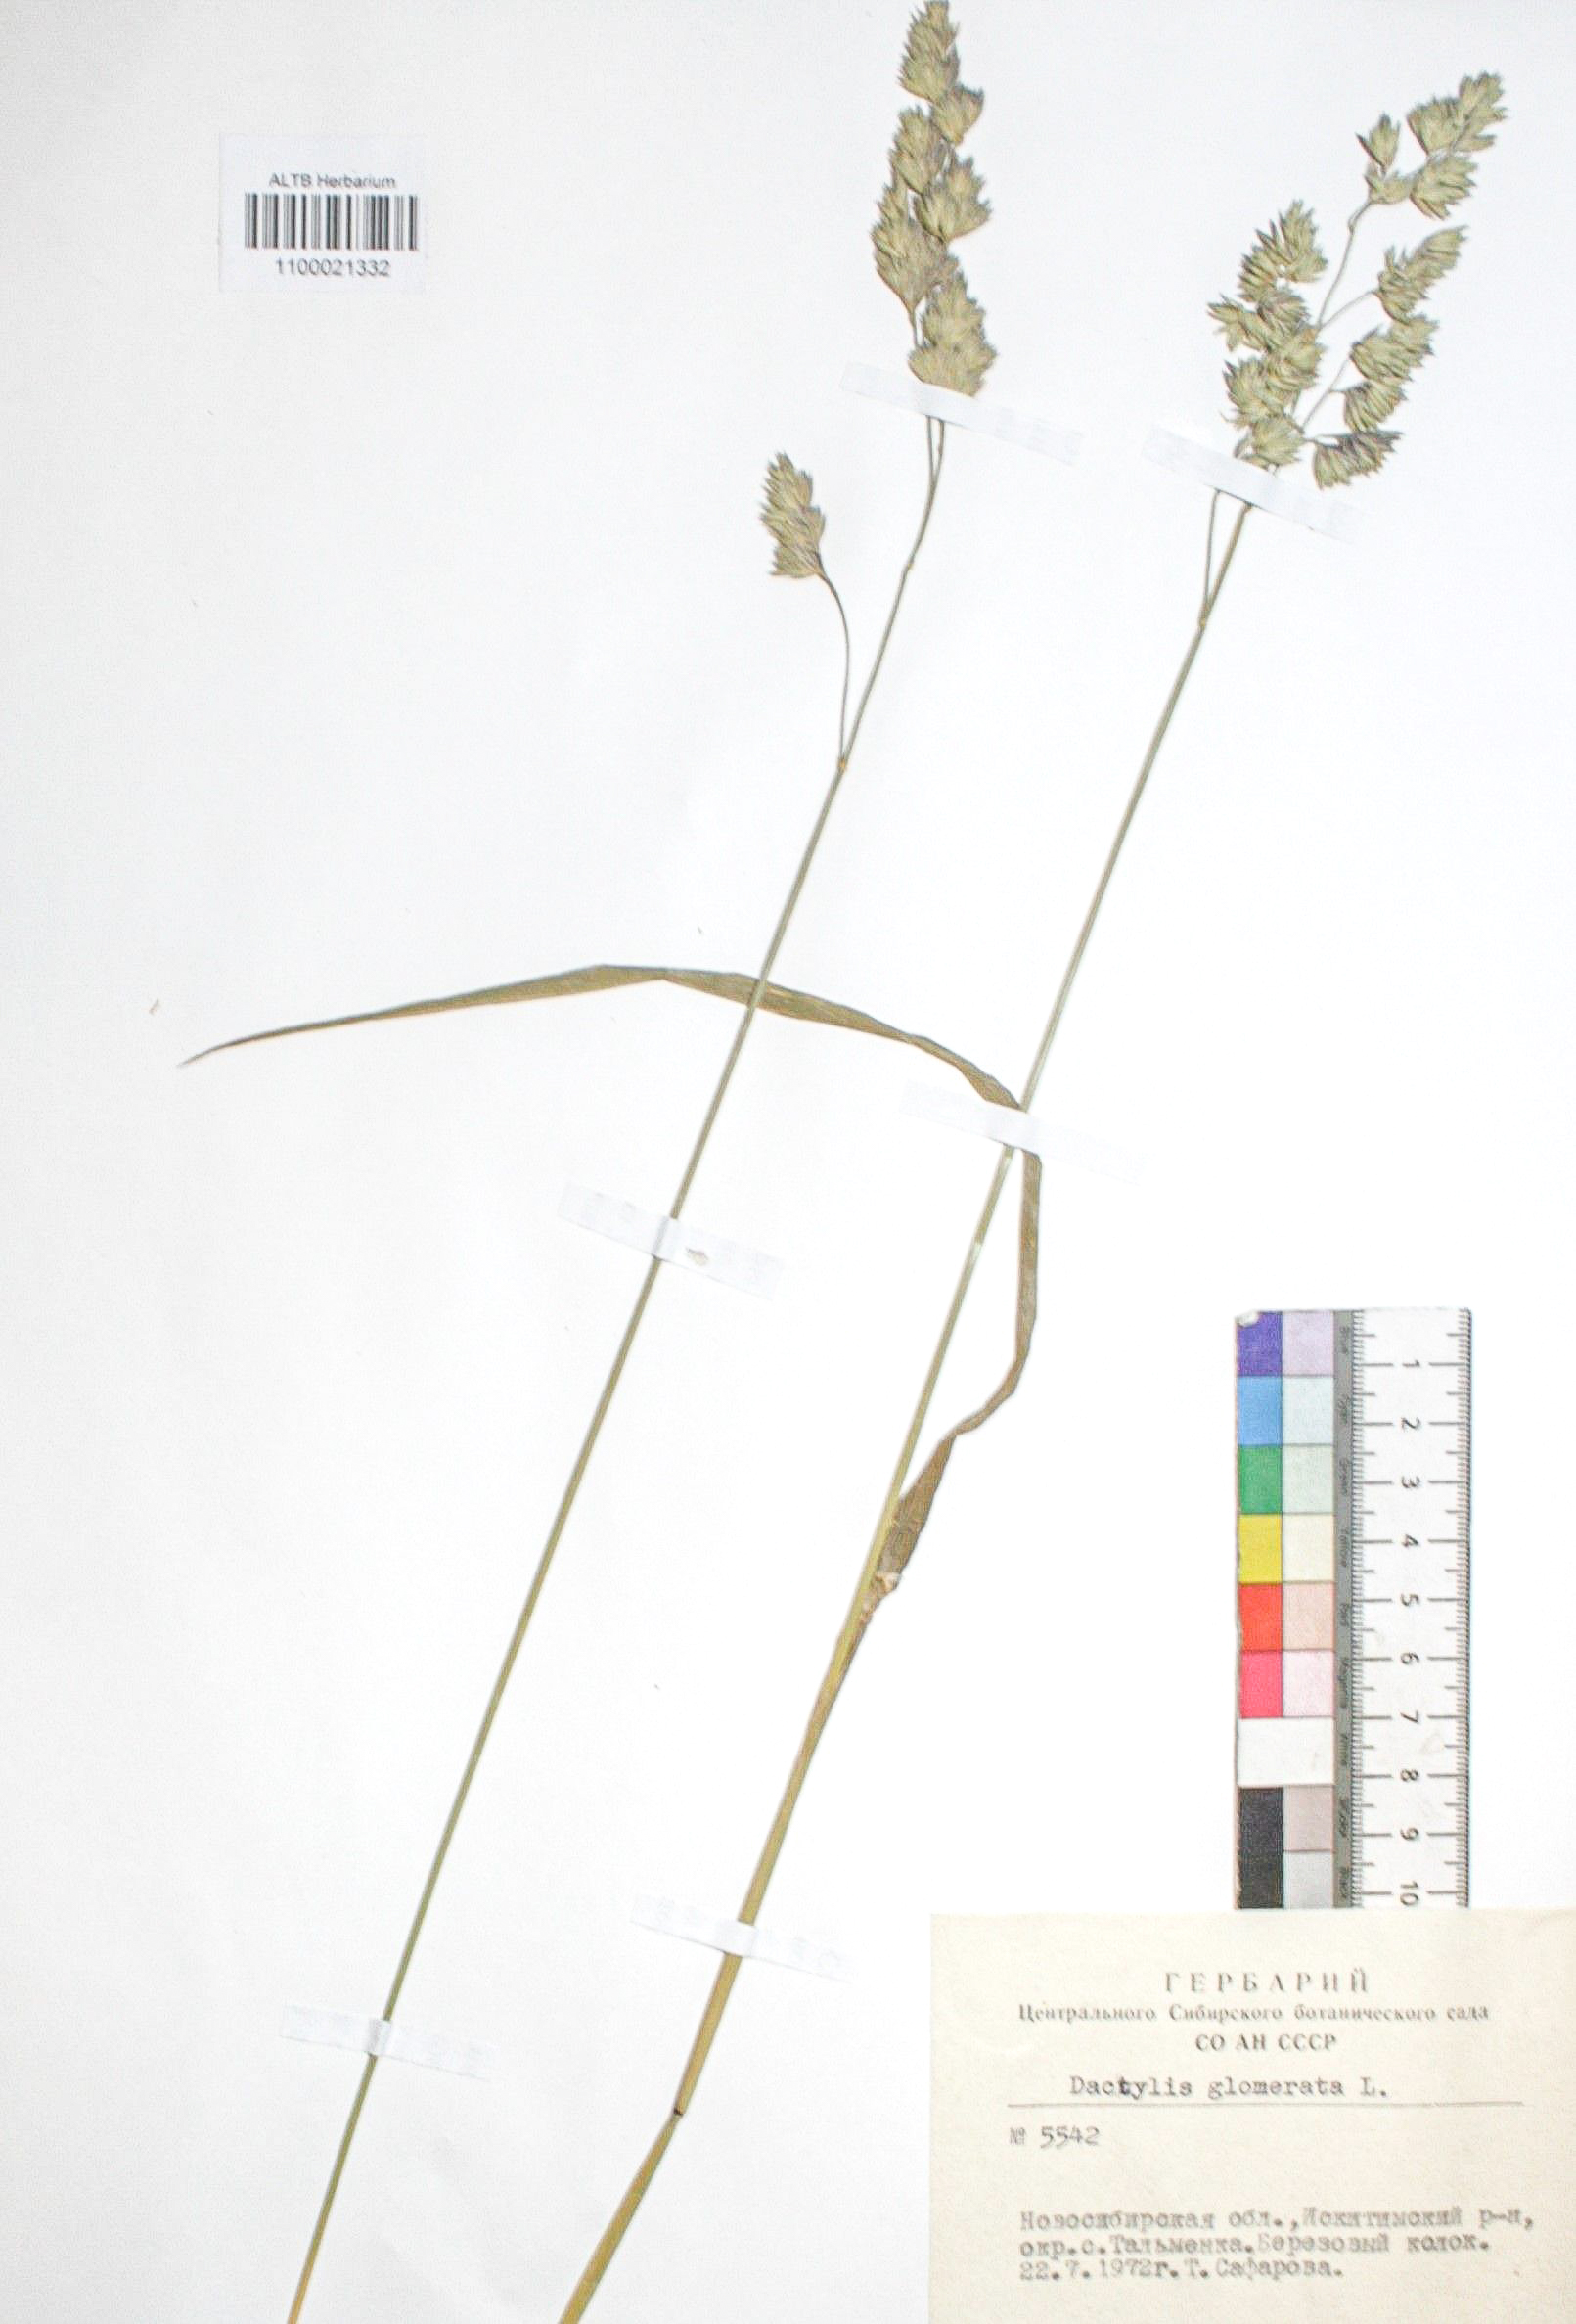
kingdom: Plantae
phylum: Tracheophyta
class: Liliopsida
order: Poales
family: Poaceae
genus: Dactylis
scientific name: Dactylis glomerata
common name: Orchardgrass
